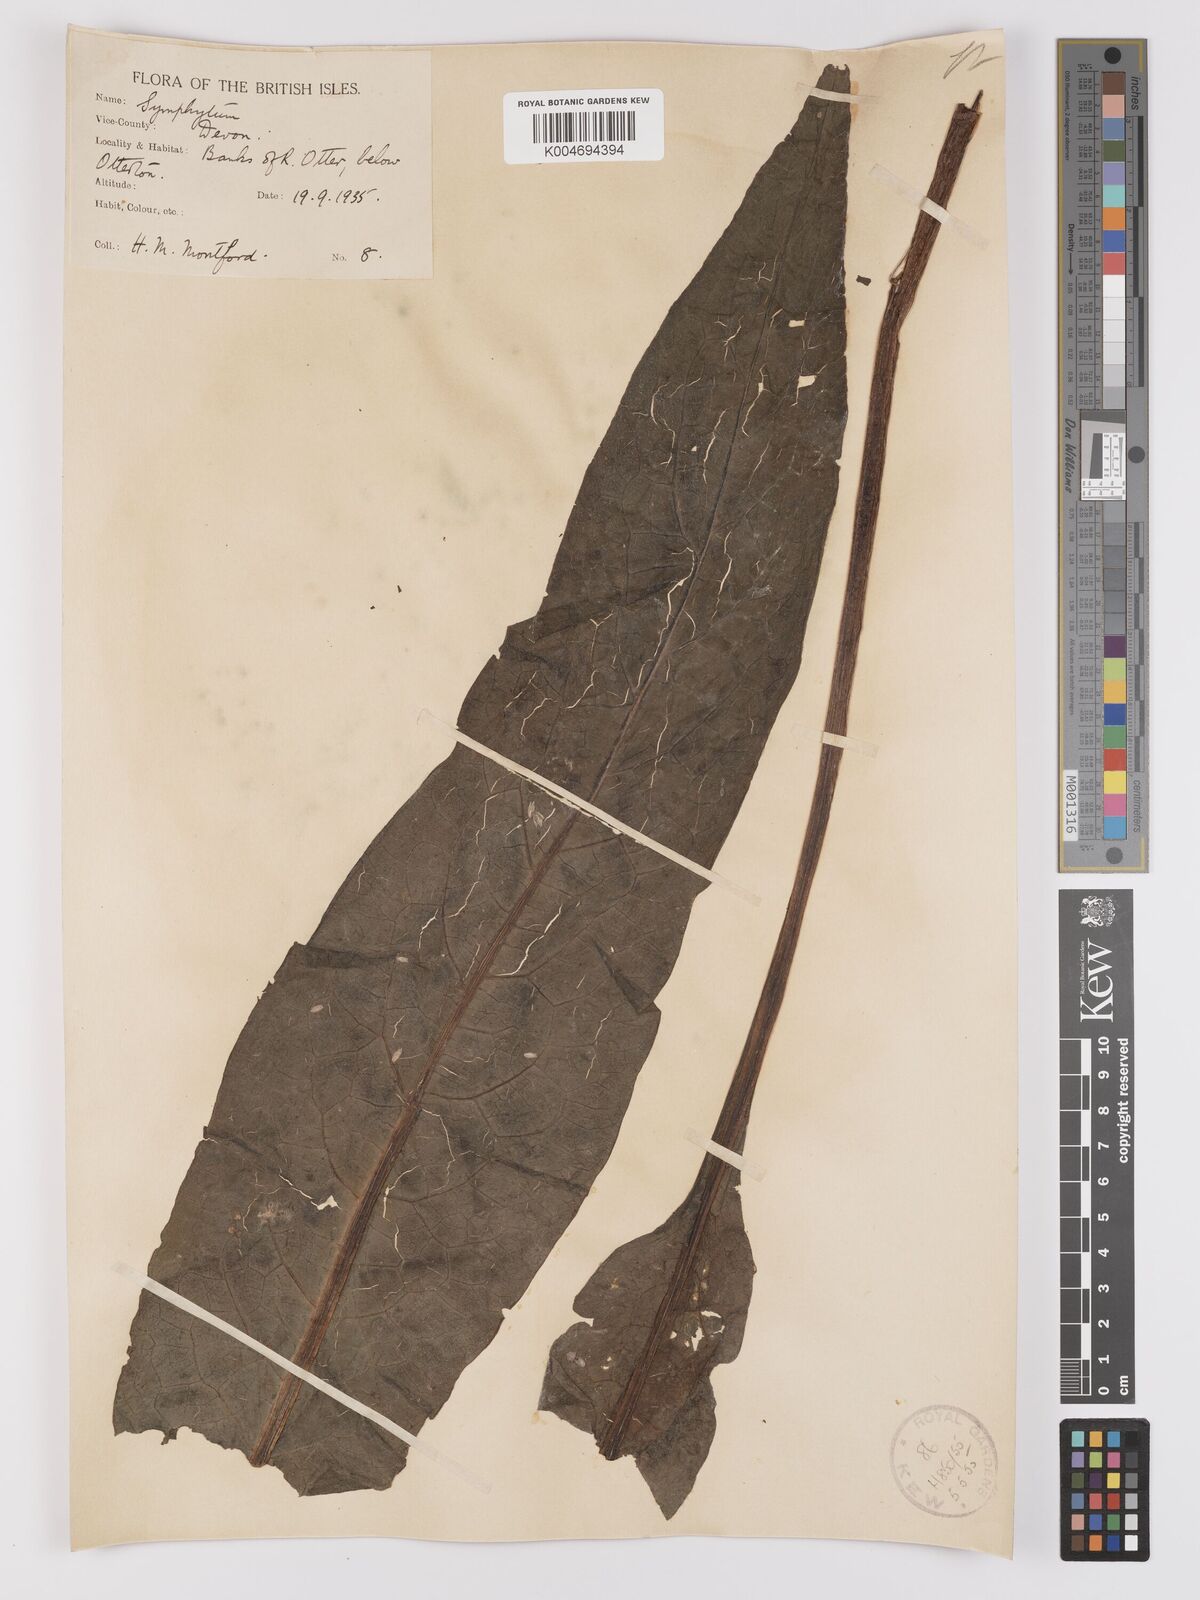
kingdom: Plantae
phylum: Tracheophyta
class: Magnoliopsida
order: Boraginales
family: Boraginaceae
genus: Symphytum
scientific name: Symphytum officinale
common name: Common comfrey
